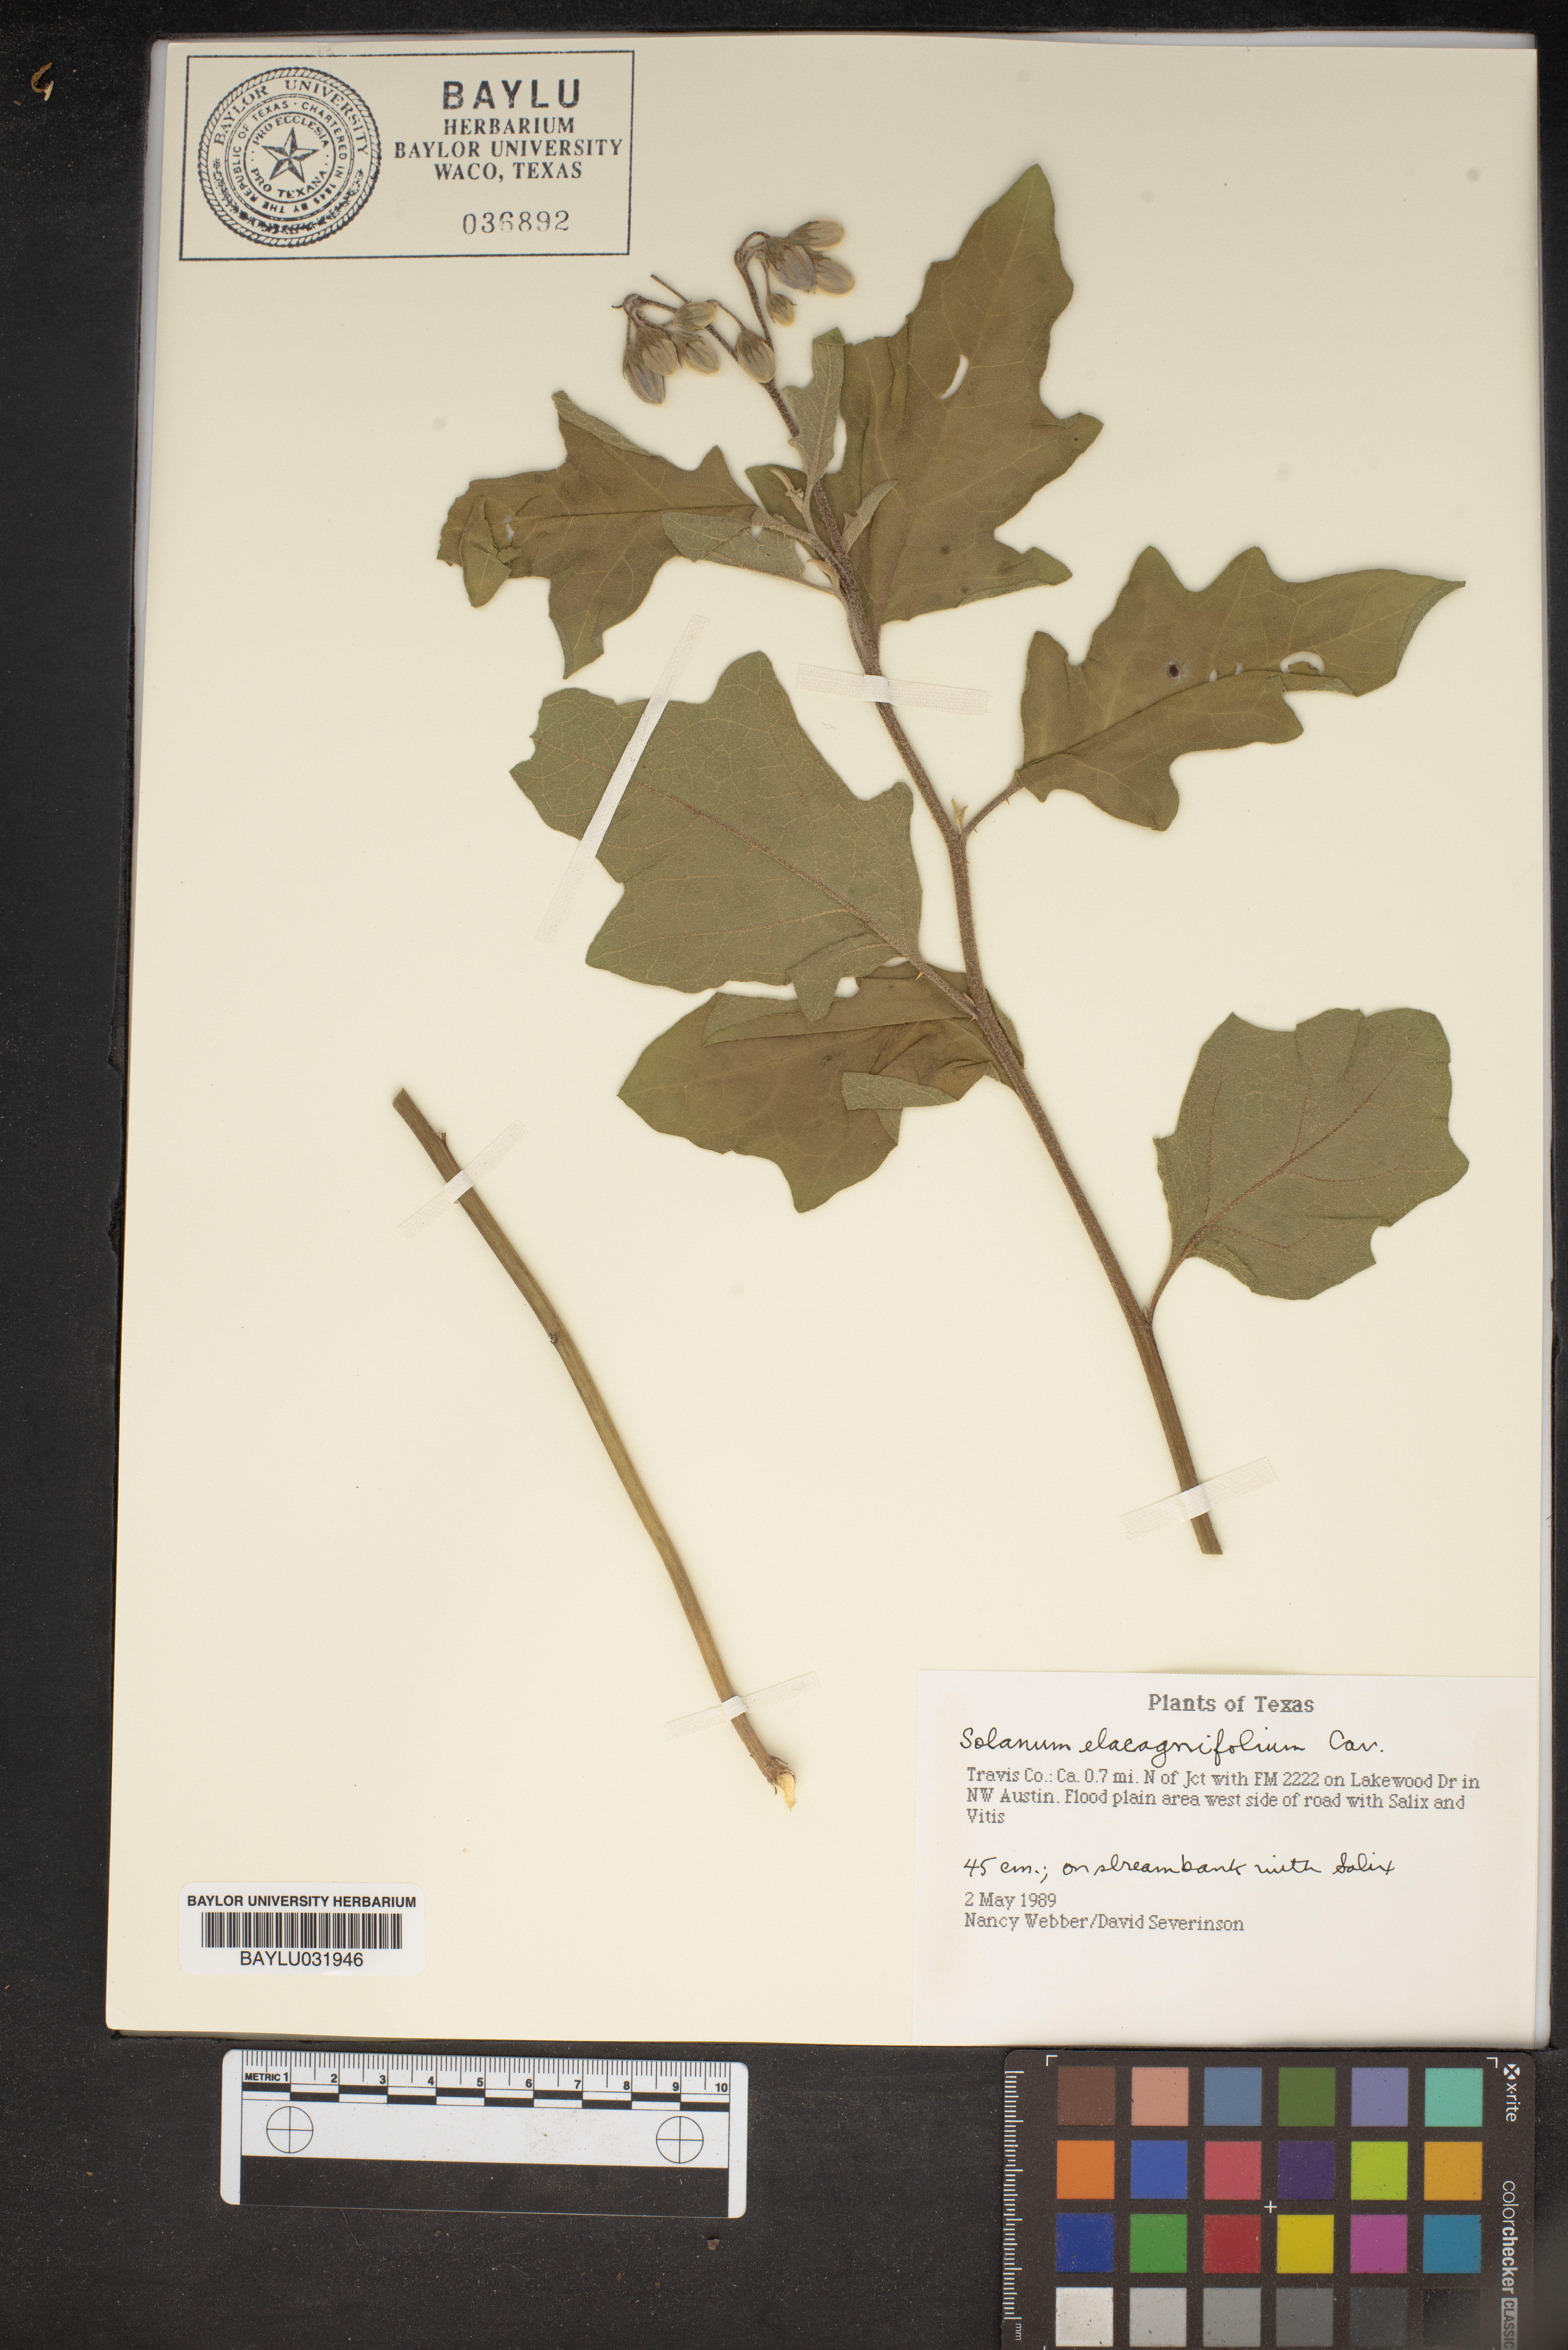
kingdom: Plantae
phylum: Tracheophyta
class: Magnoliopsida
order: Solanales
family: Solanaceae
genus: Solanum
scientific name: Solanum elaeagnifolium
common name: Silverleaf nightshade
